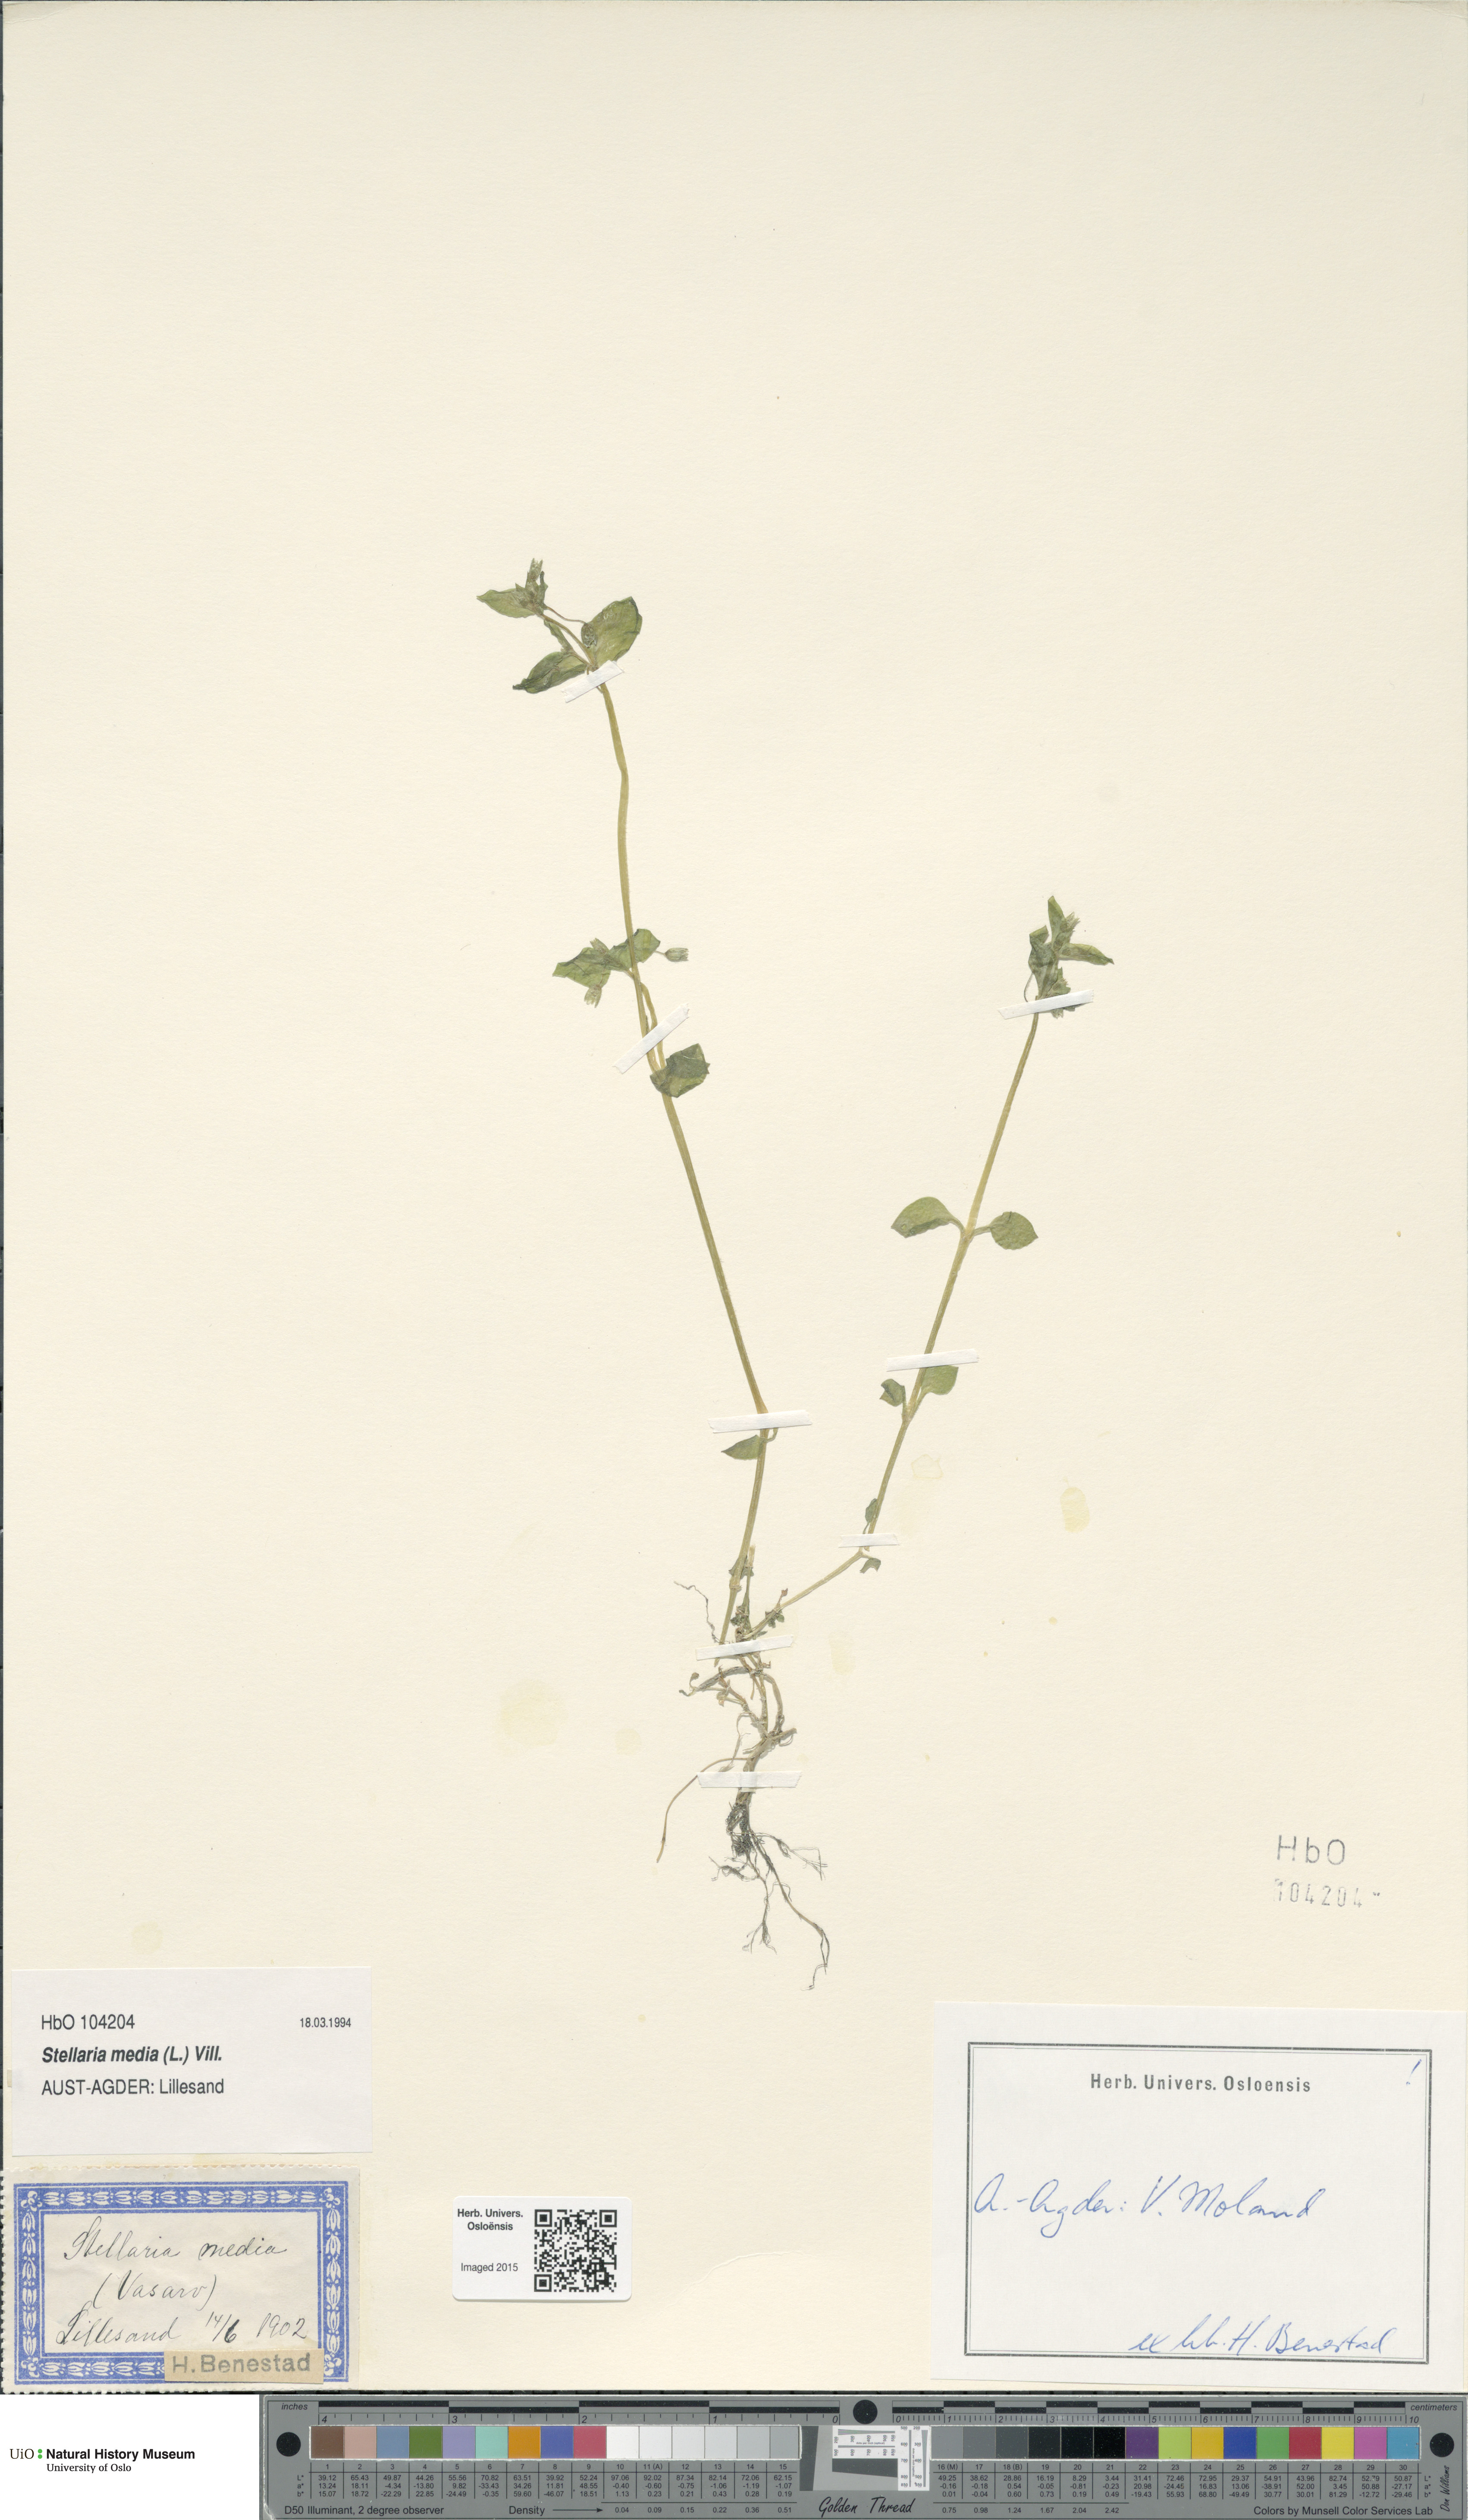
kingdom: Plantae
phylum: Tracheophyta
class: Magnoliopsida
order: Caryophyllales
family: Caryophyllaceae
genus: Stellaria
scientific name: Stellaria media
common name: Common chickweed
